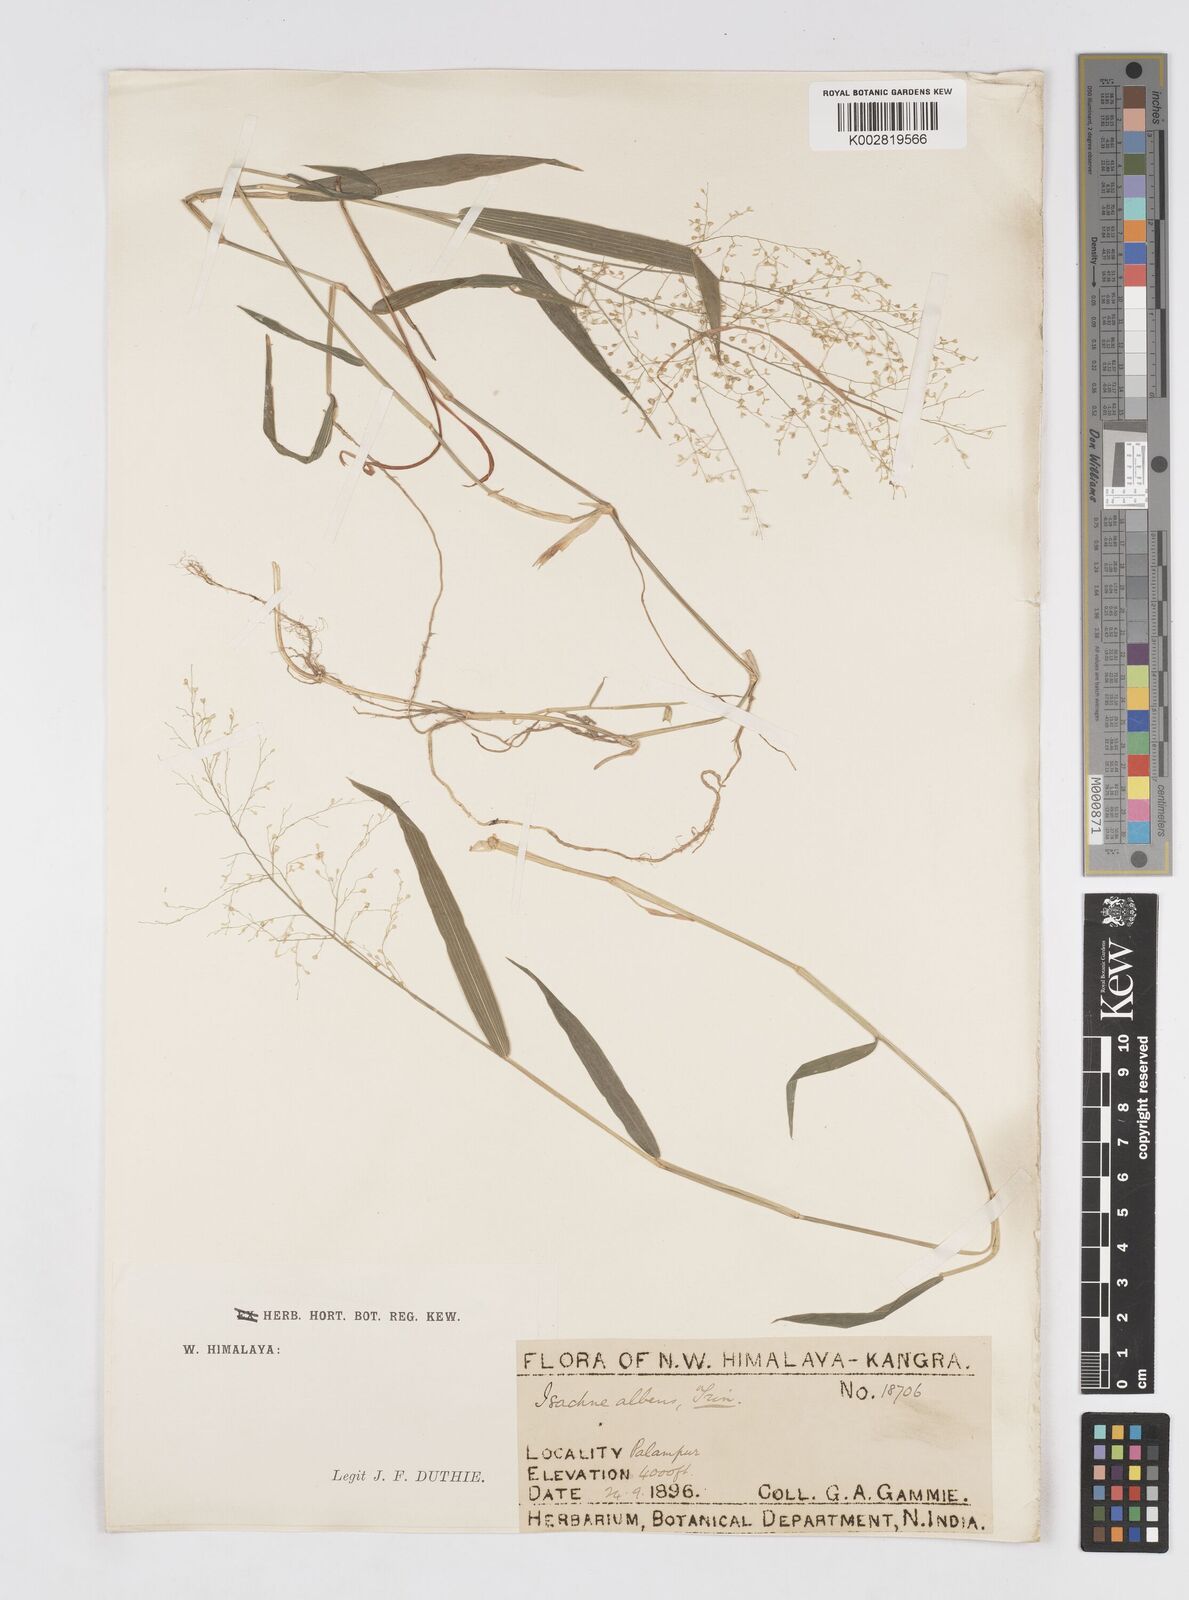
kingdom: Plantae
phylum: Tracheophyta
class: Liliopsida
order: Poales
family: Poaceae
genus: Isachne
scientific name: Isachne albens
